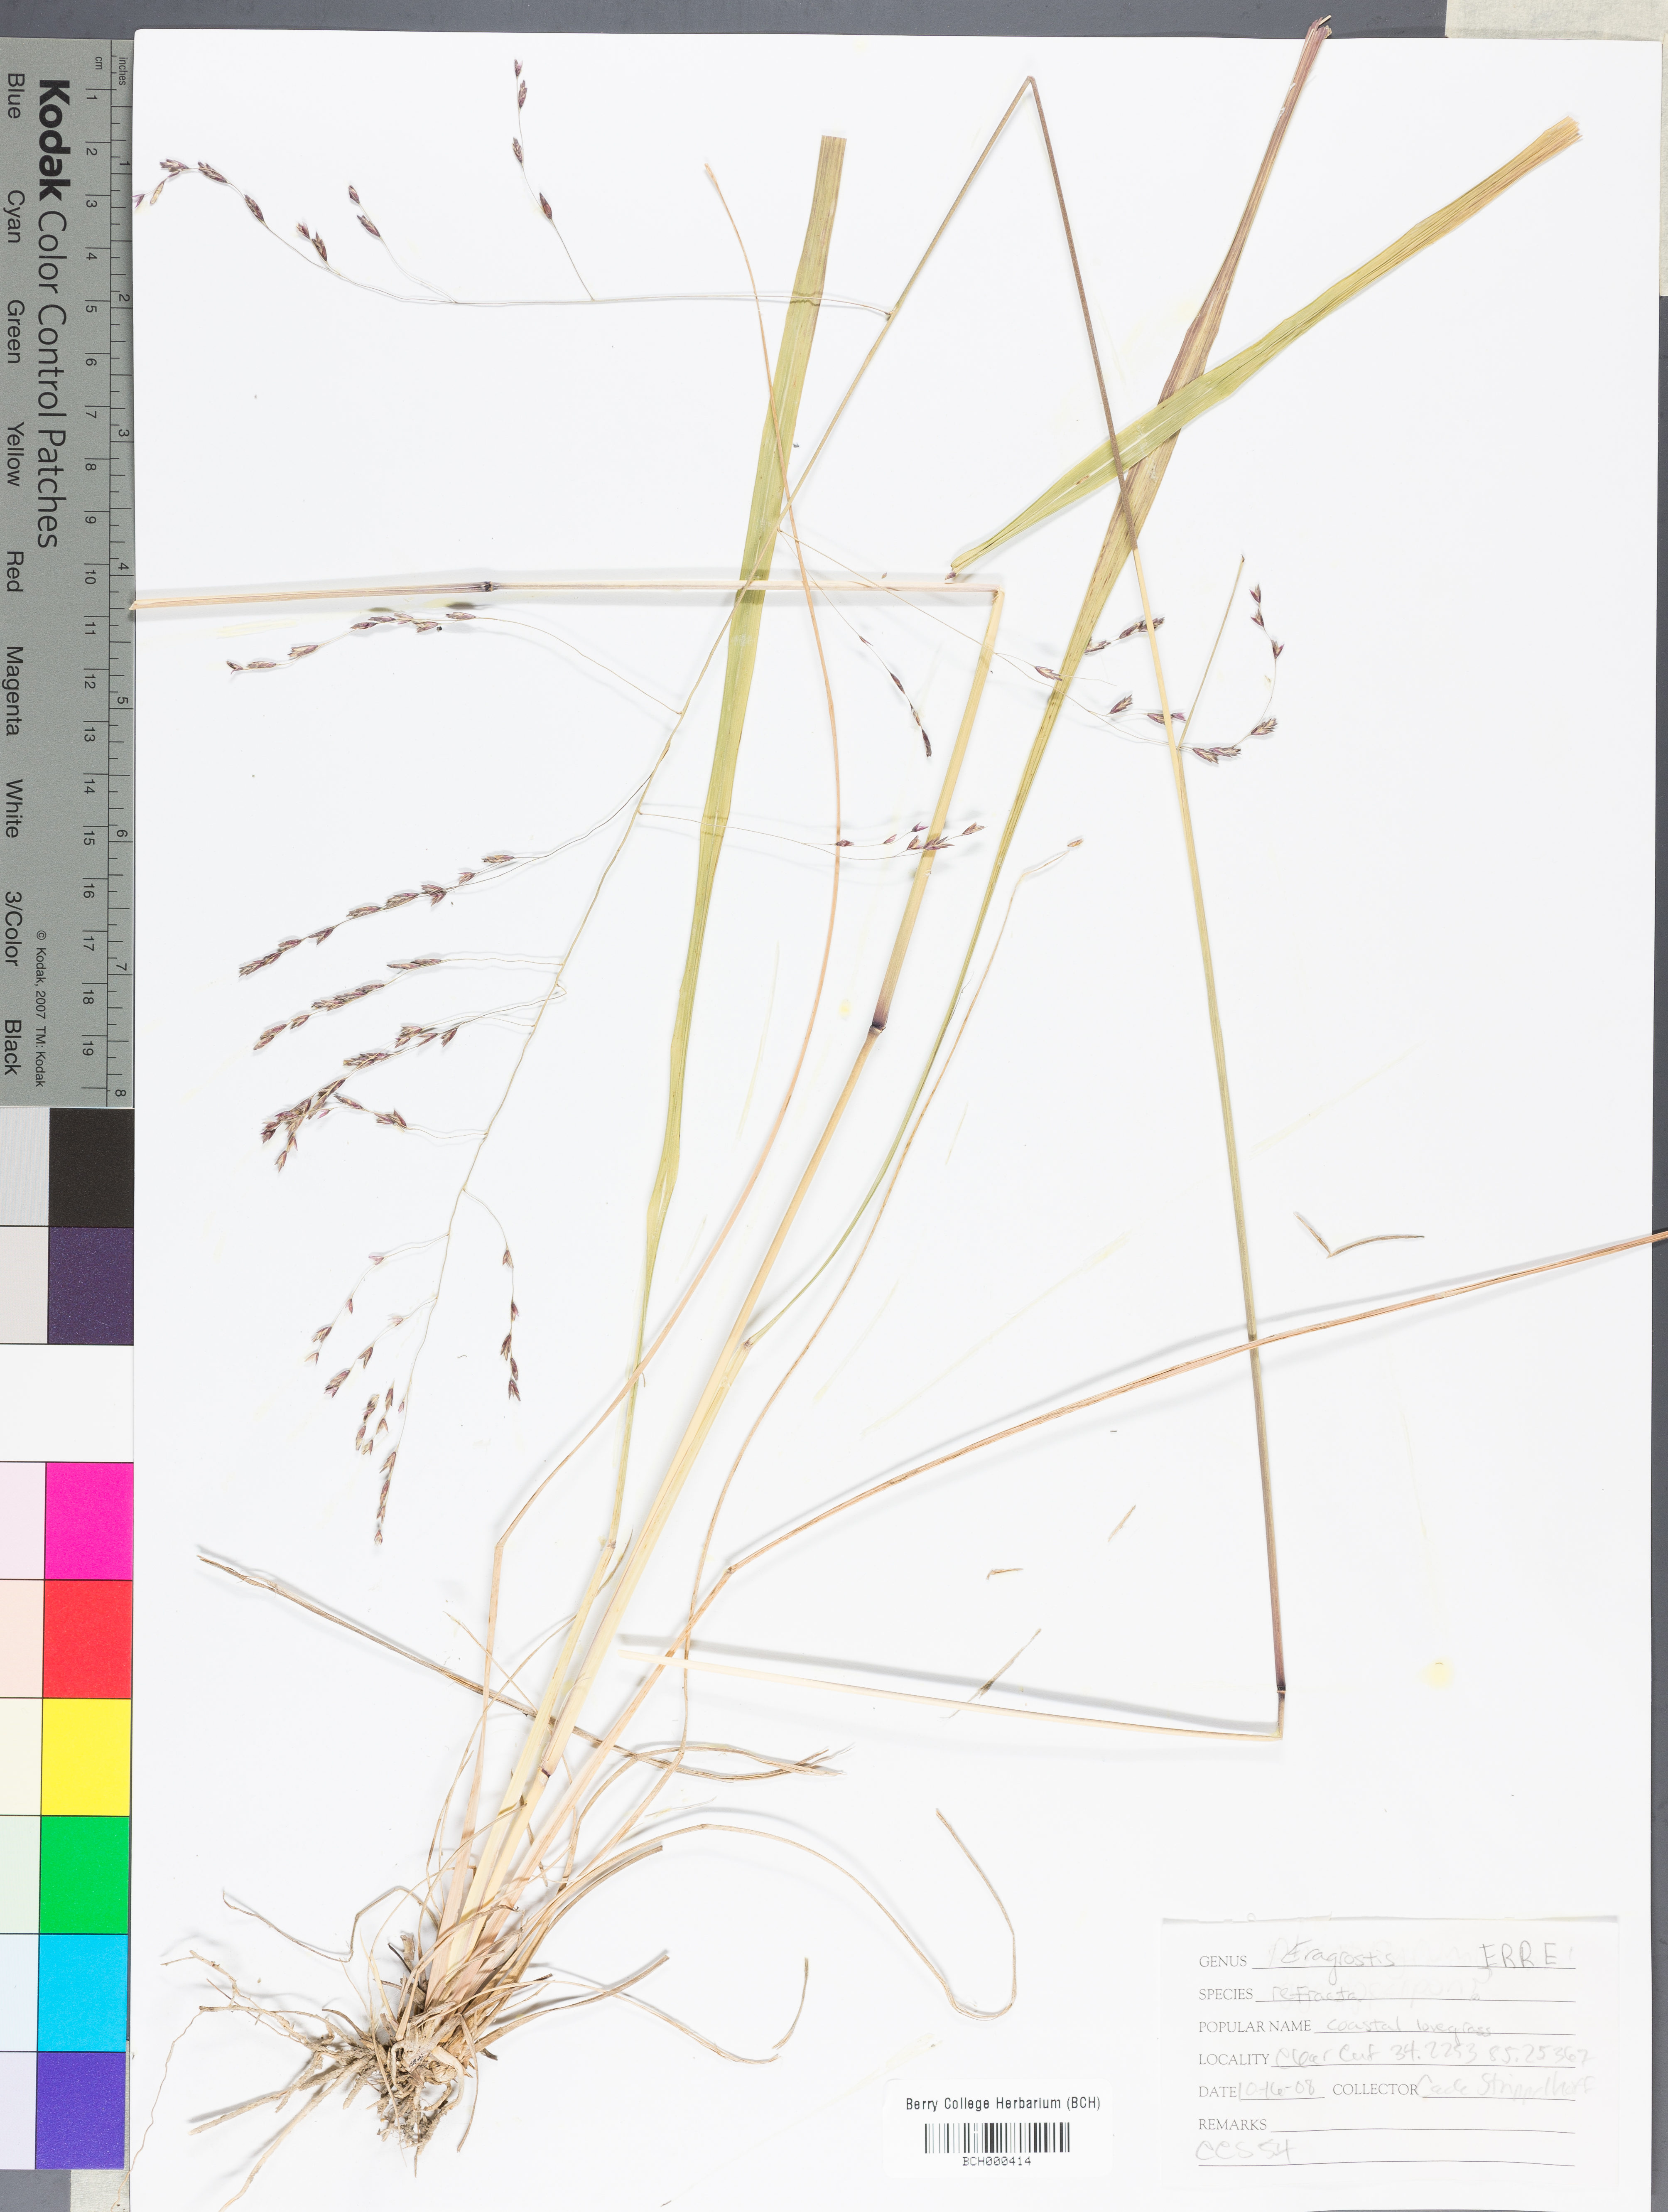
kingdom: Plantae
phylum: Tracheophyta
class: Liliopsida
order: Poales
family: Poaceae
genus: Eragrostis
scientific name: Eragrostis refracta
